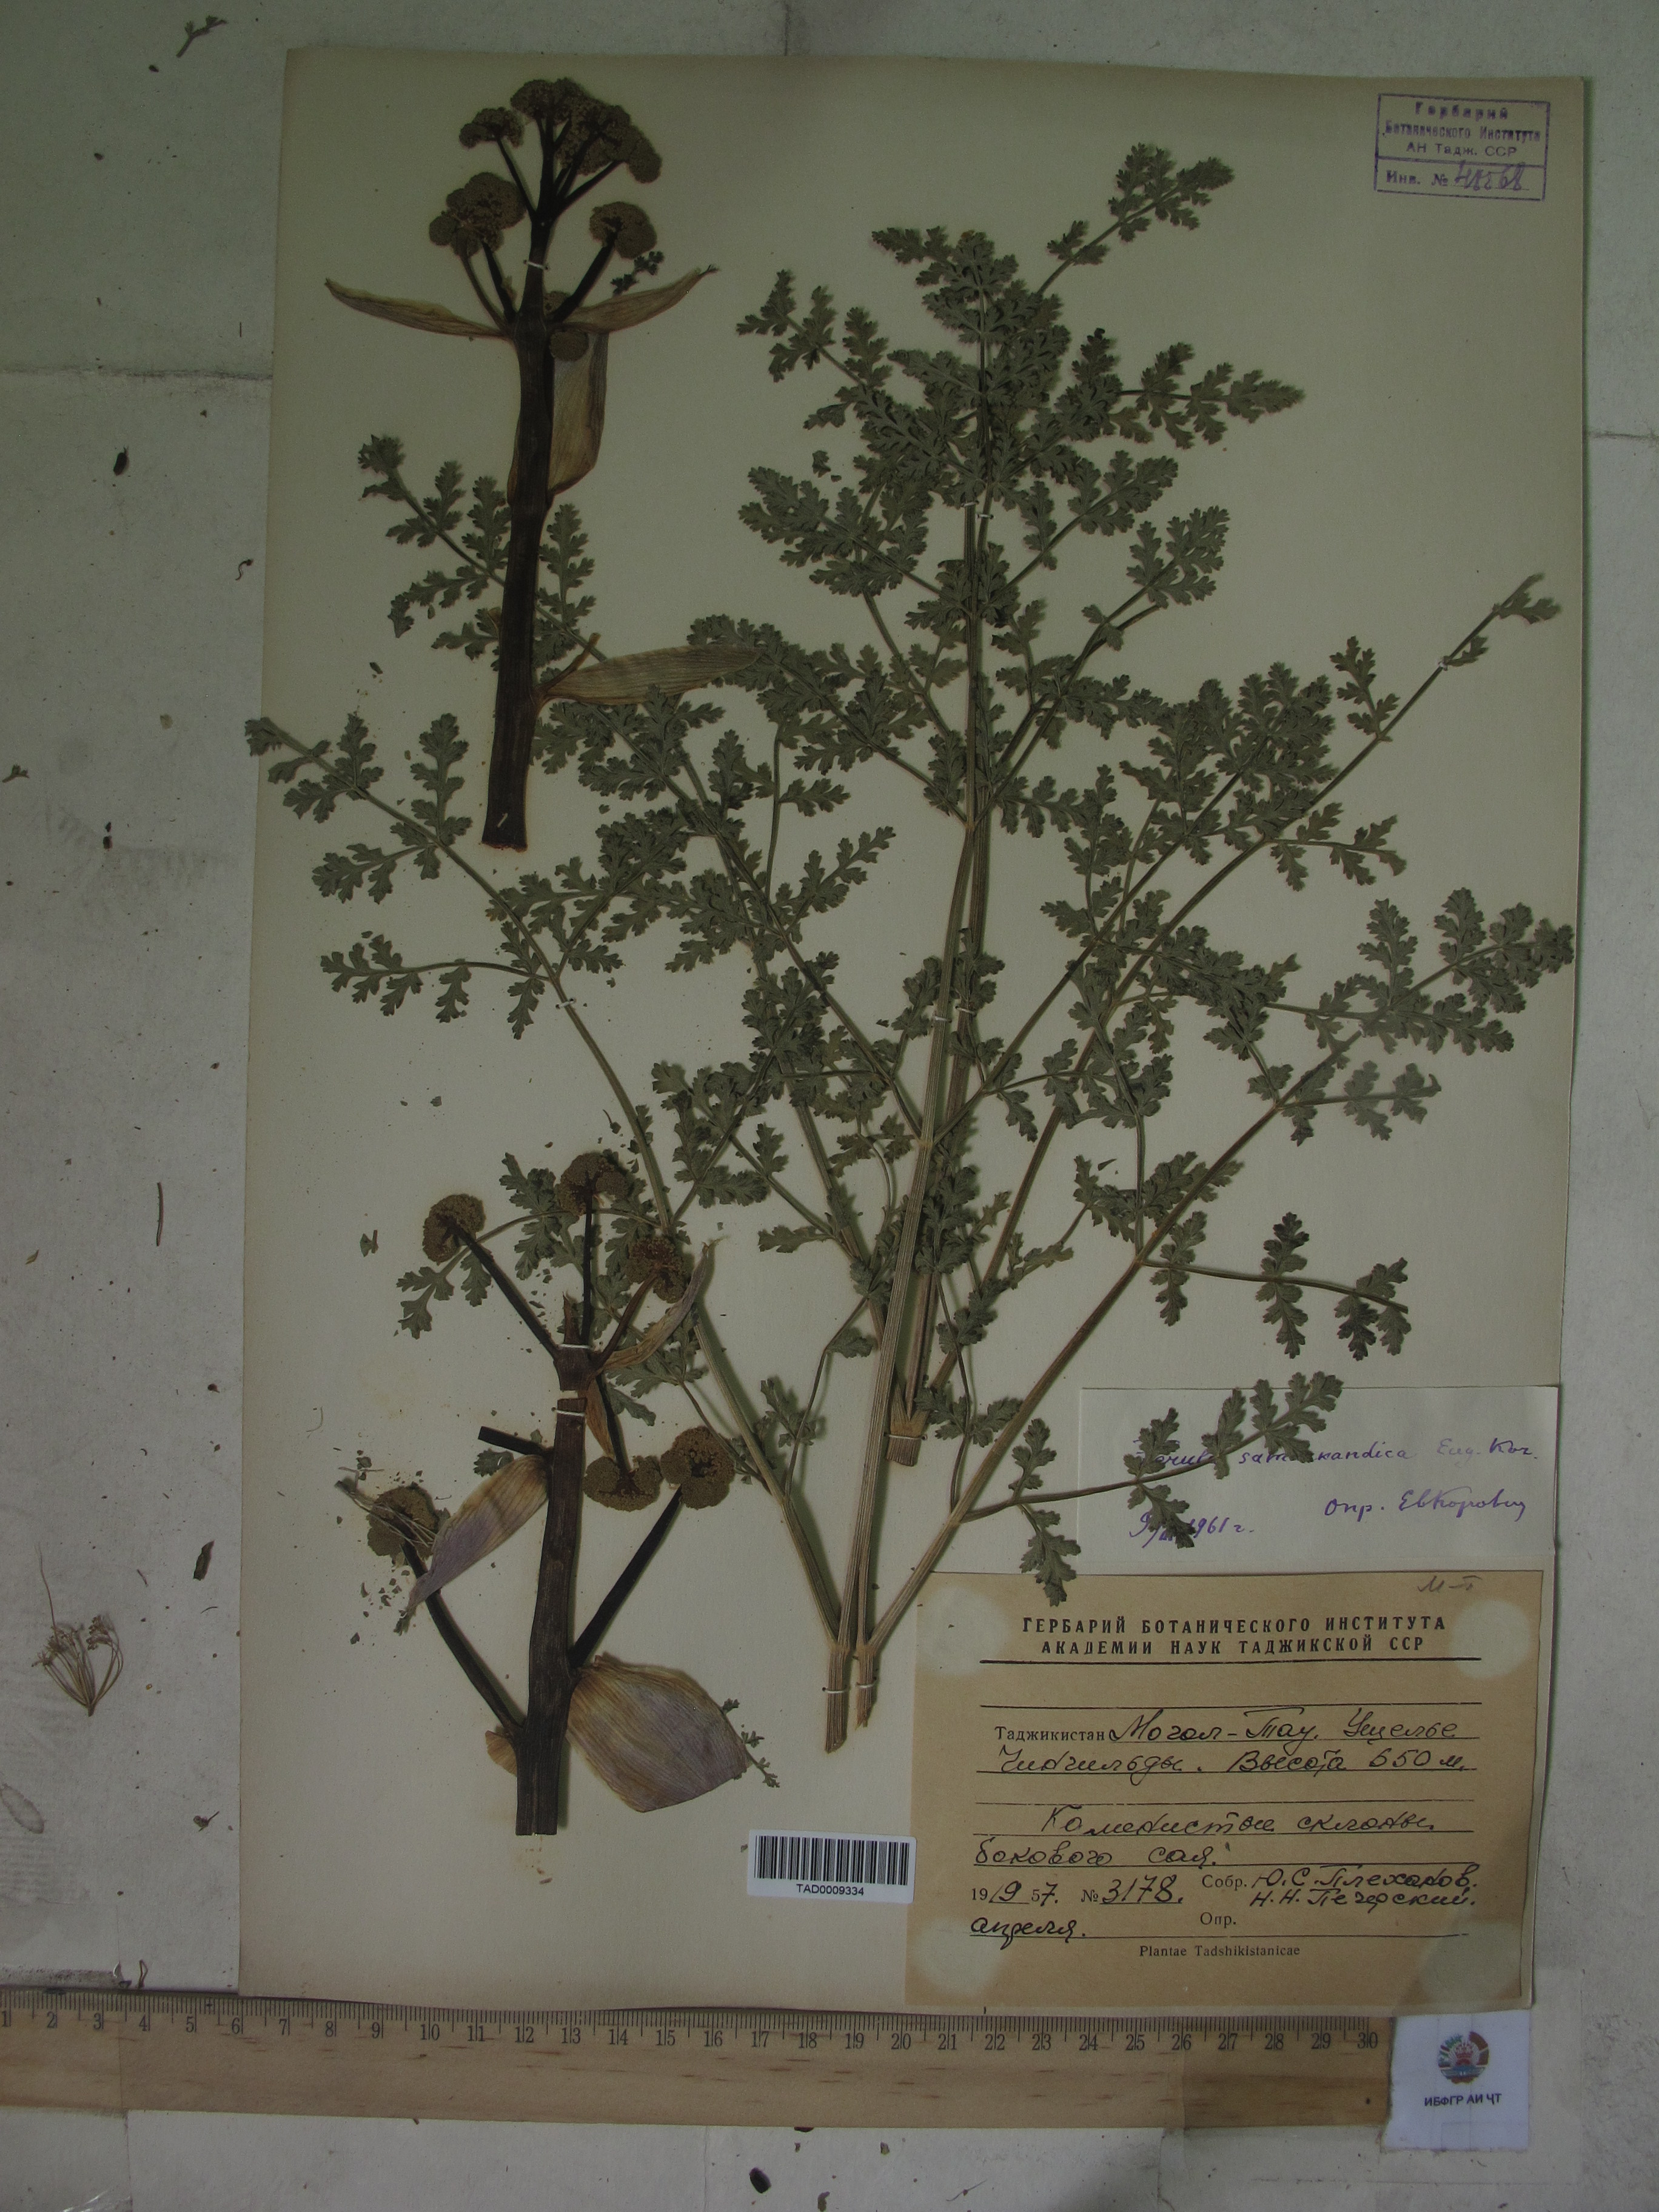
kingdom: Plantae
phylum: Tracheophyta
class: Magnoliopsida
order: Apiales
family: Apiaceae
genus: Ferula
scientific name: Ferula samarkandica
